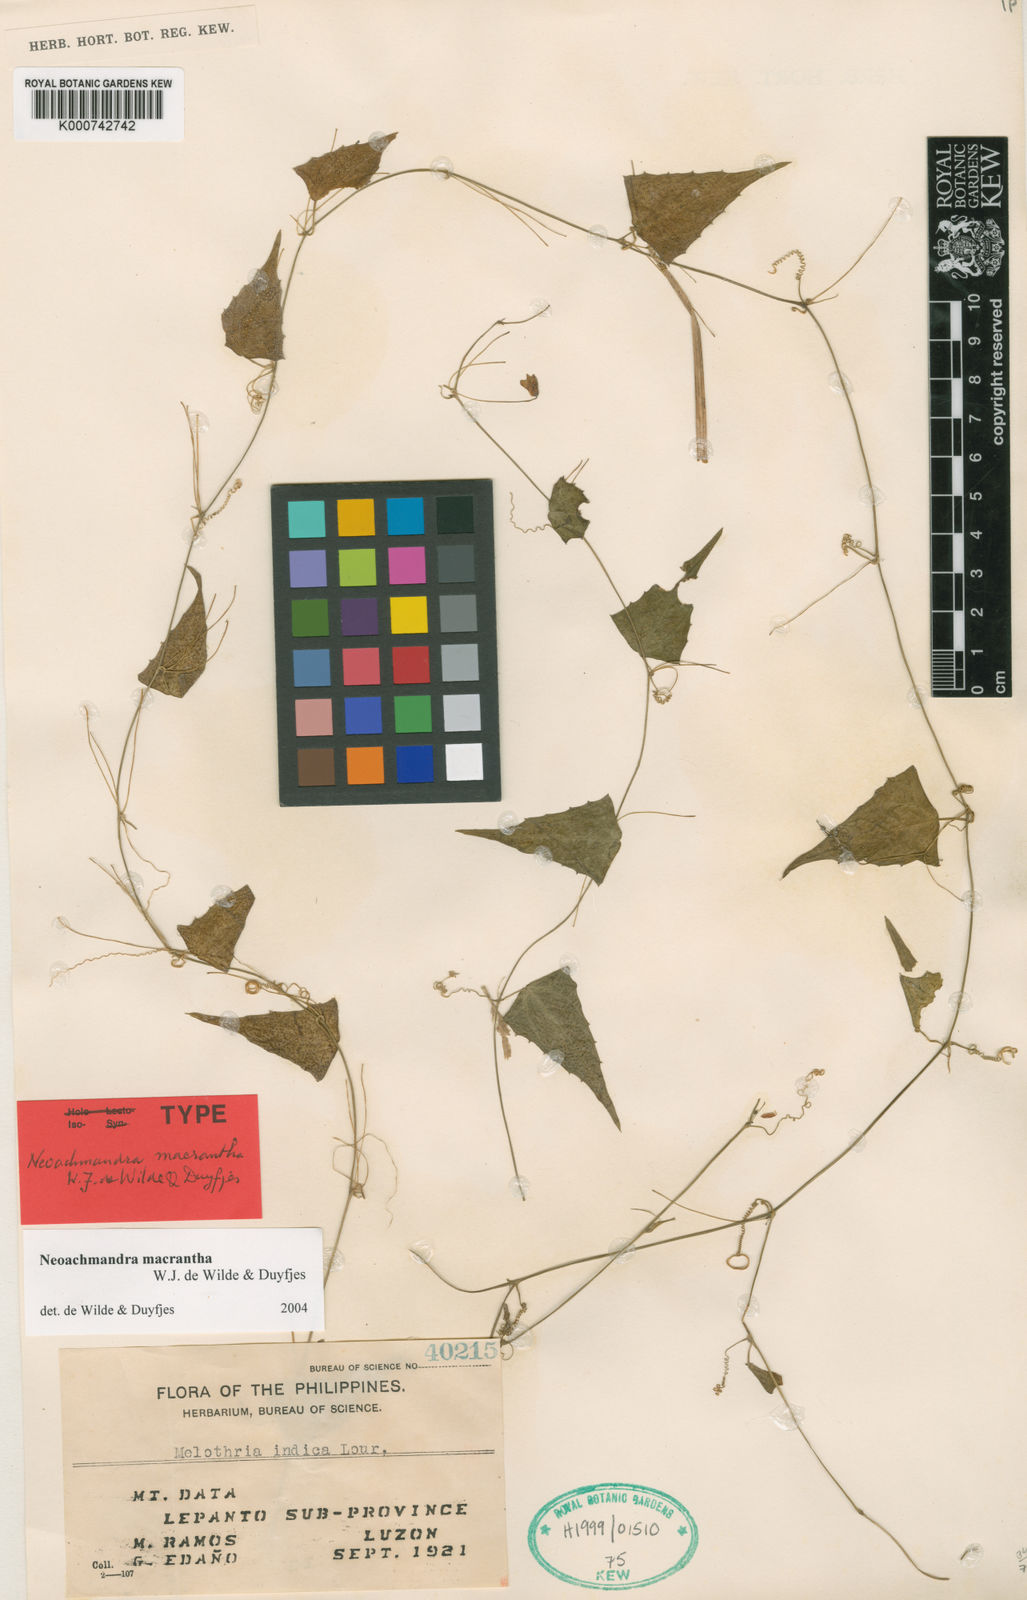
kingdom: Plantae
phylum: Tracheophyta
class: Magnoliopsida
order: Cucurbitales
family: Cucurbitaceae
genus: Zehneria
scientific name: Zehneria macrantha
